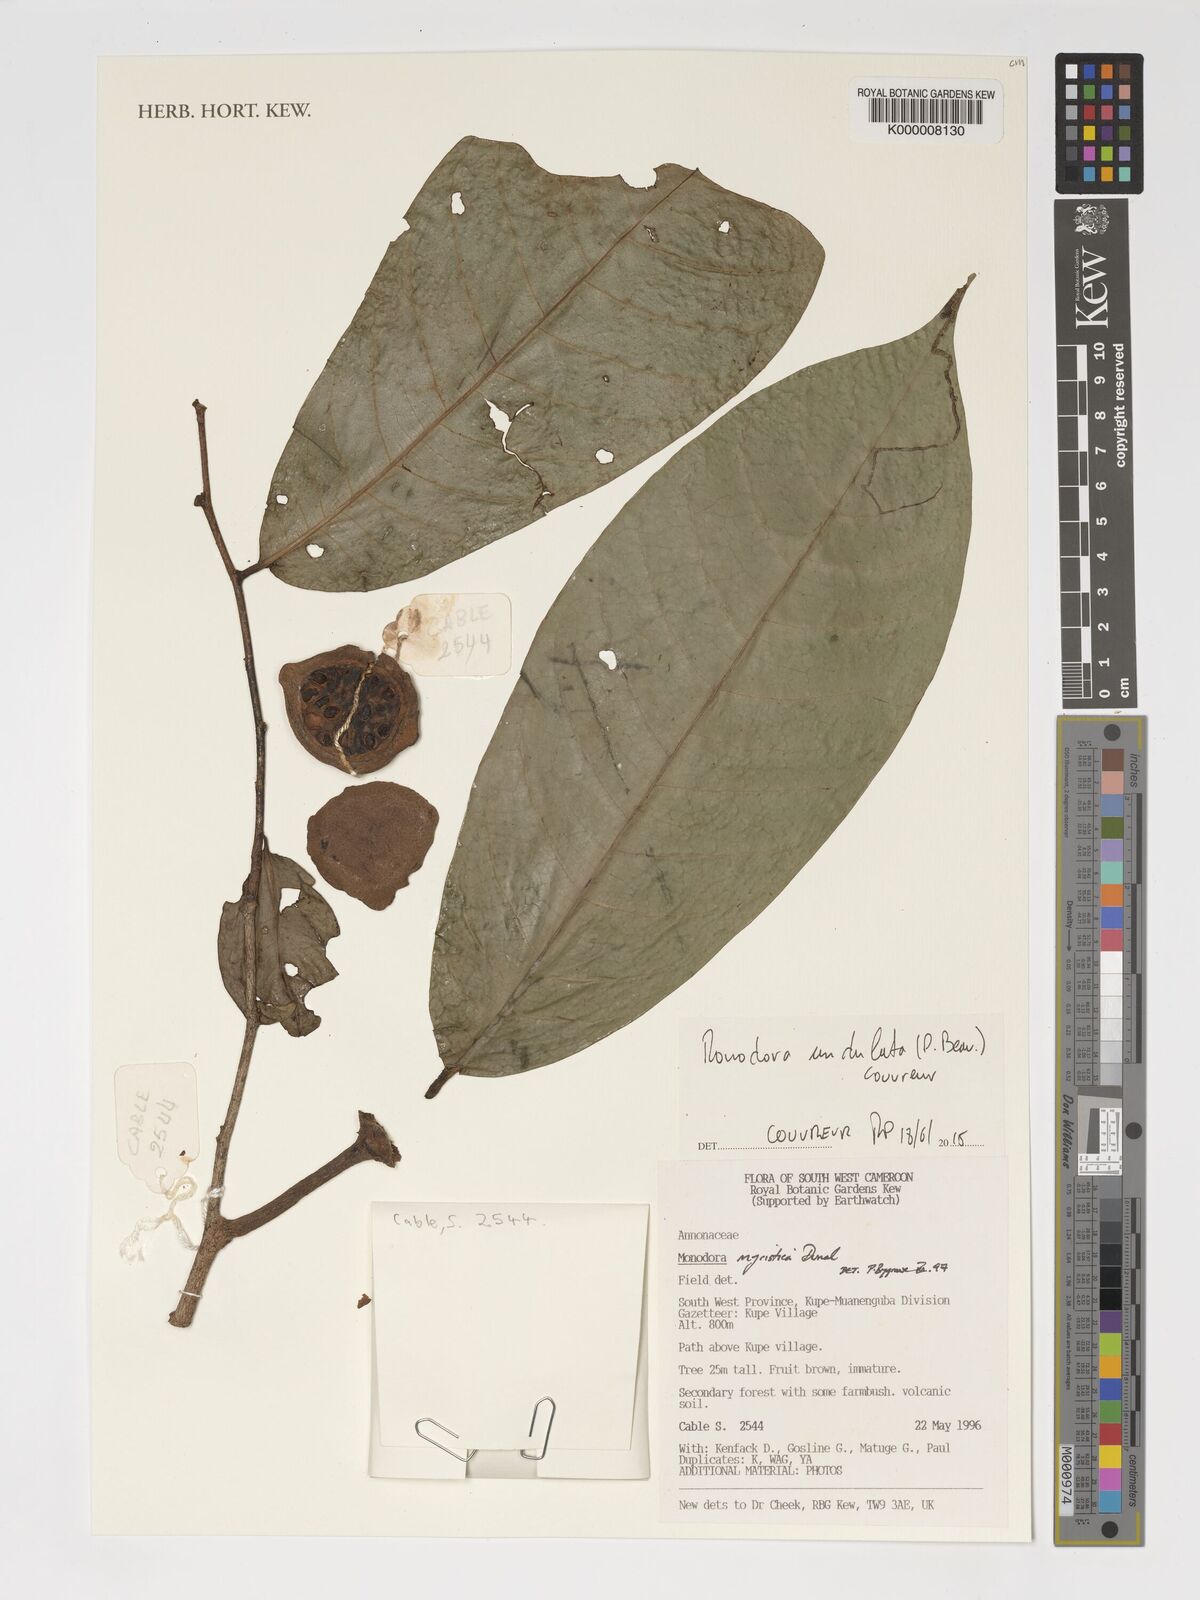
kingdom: Plantae
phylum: Tracheophyta
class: Magnoliopsida
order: Magnoliales
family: Annonaceae
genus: Monodora
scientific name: Monodora myristica
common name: African nutmeg
